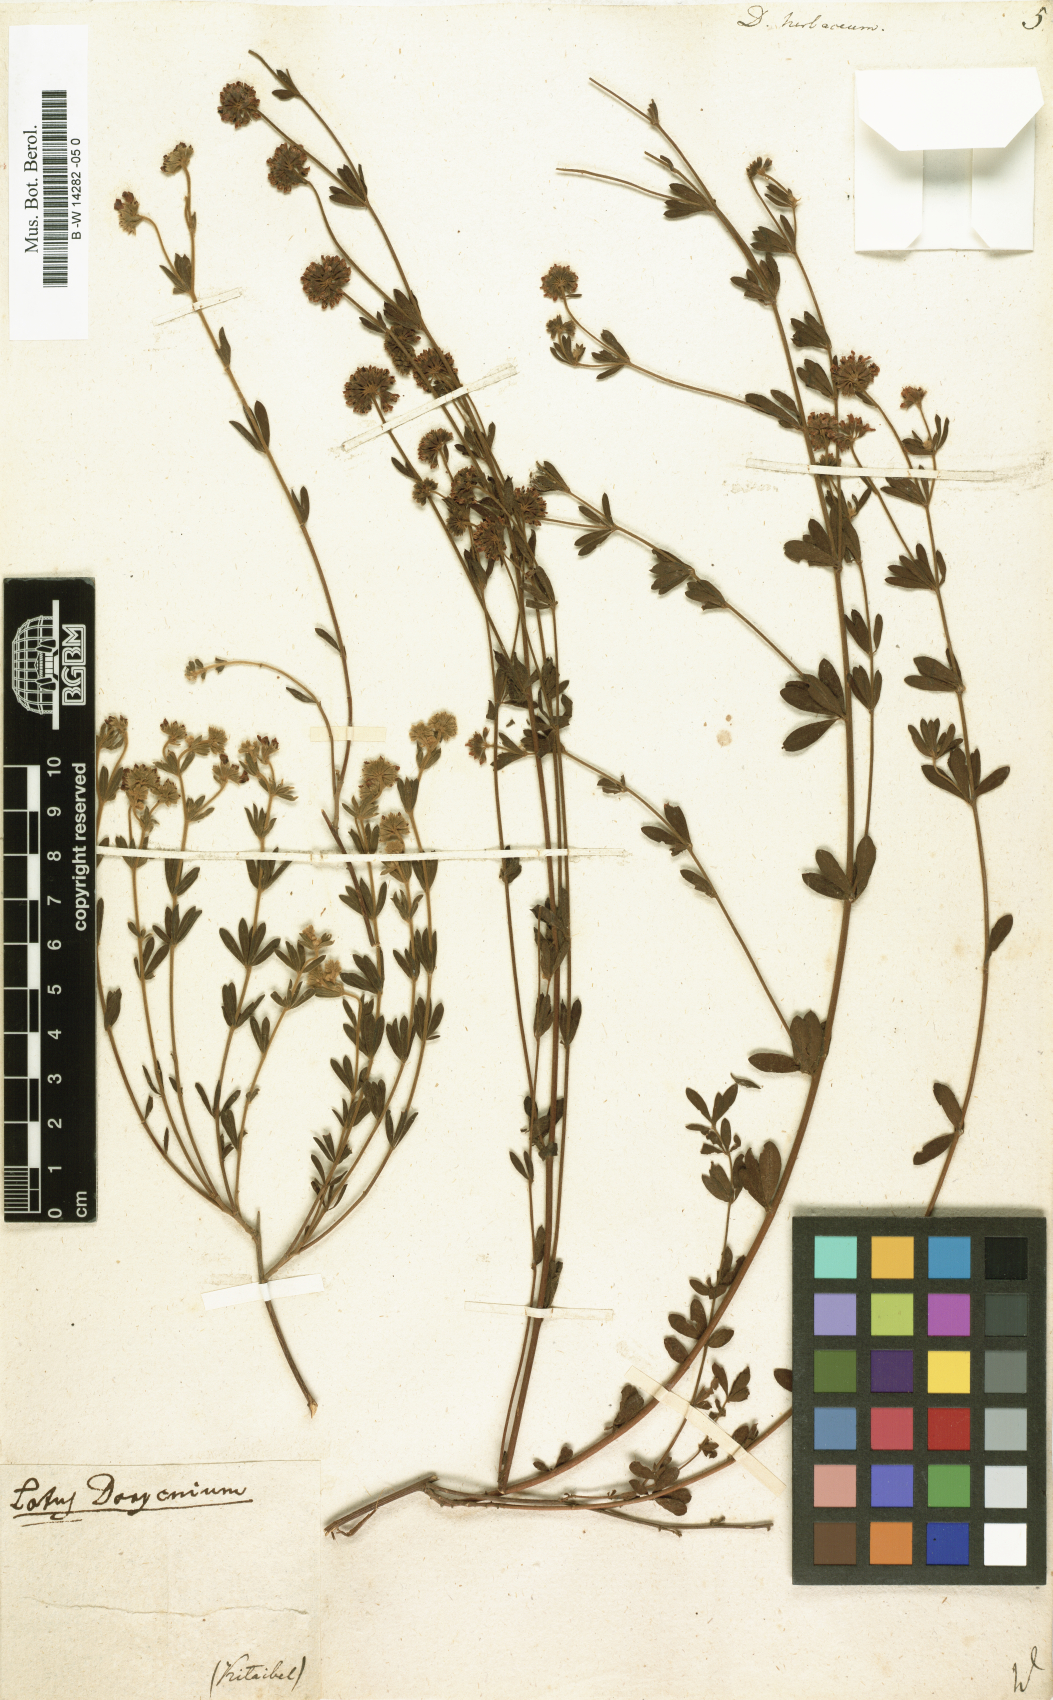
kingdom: Plantae
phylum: Tracheophyta
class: Magnoliopsida
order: Fabales
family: Fabaceae
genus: Lotus
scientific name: Lotus herbaceus
